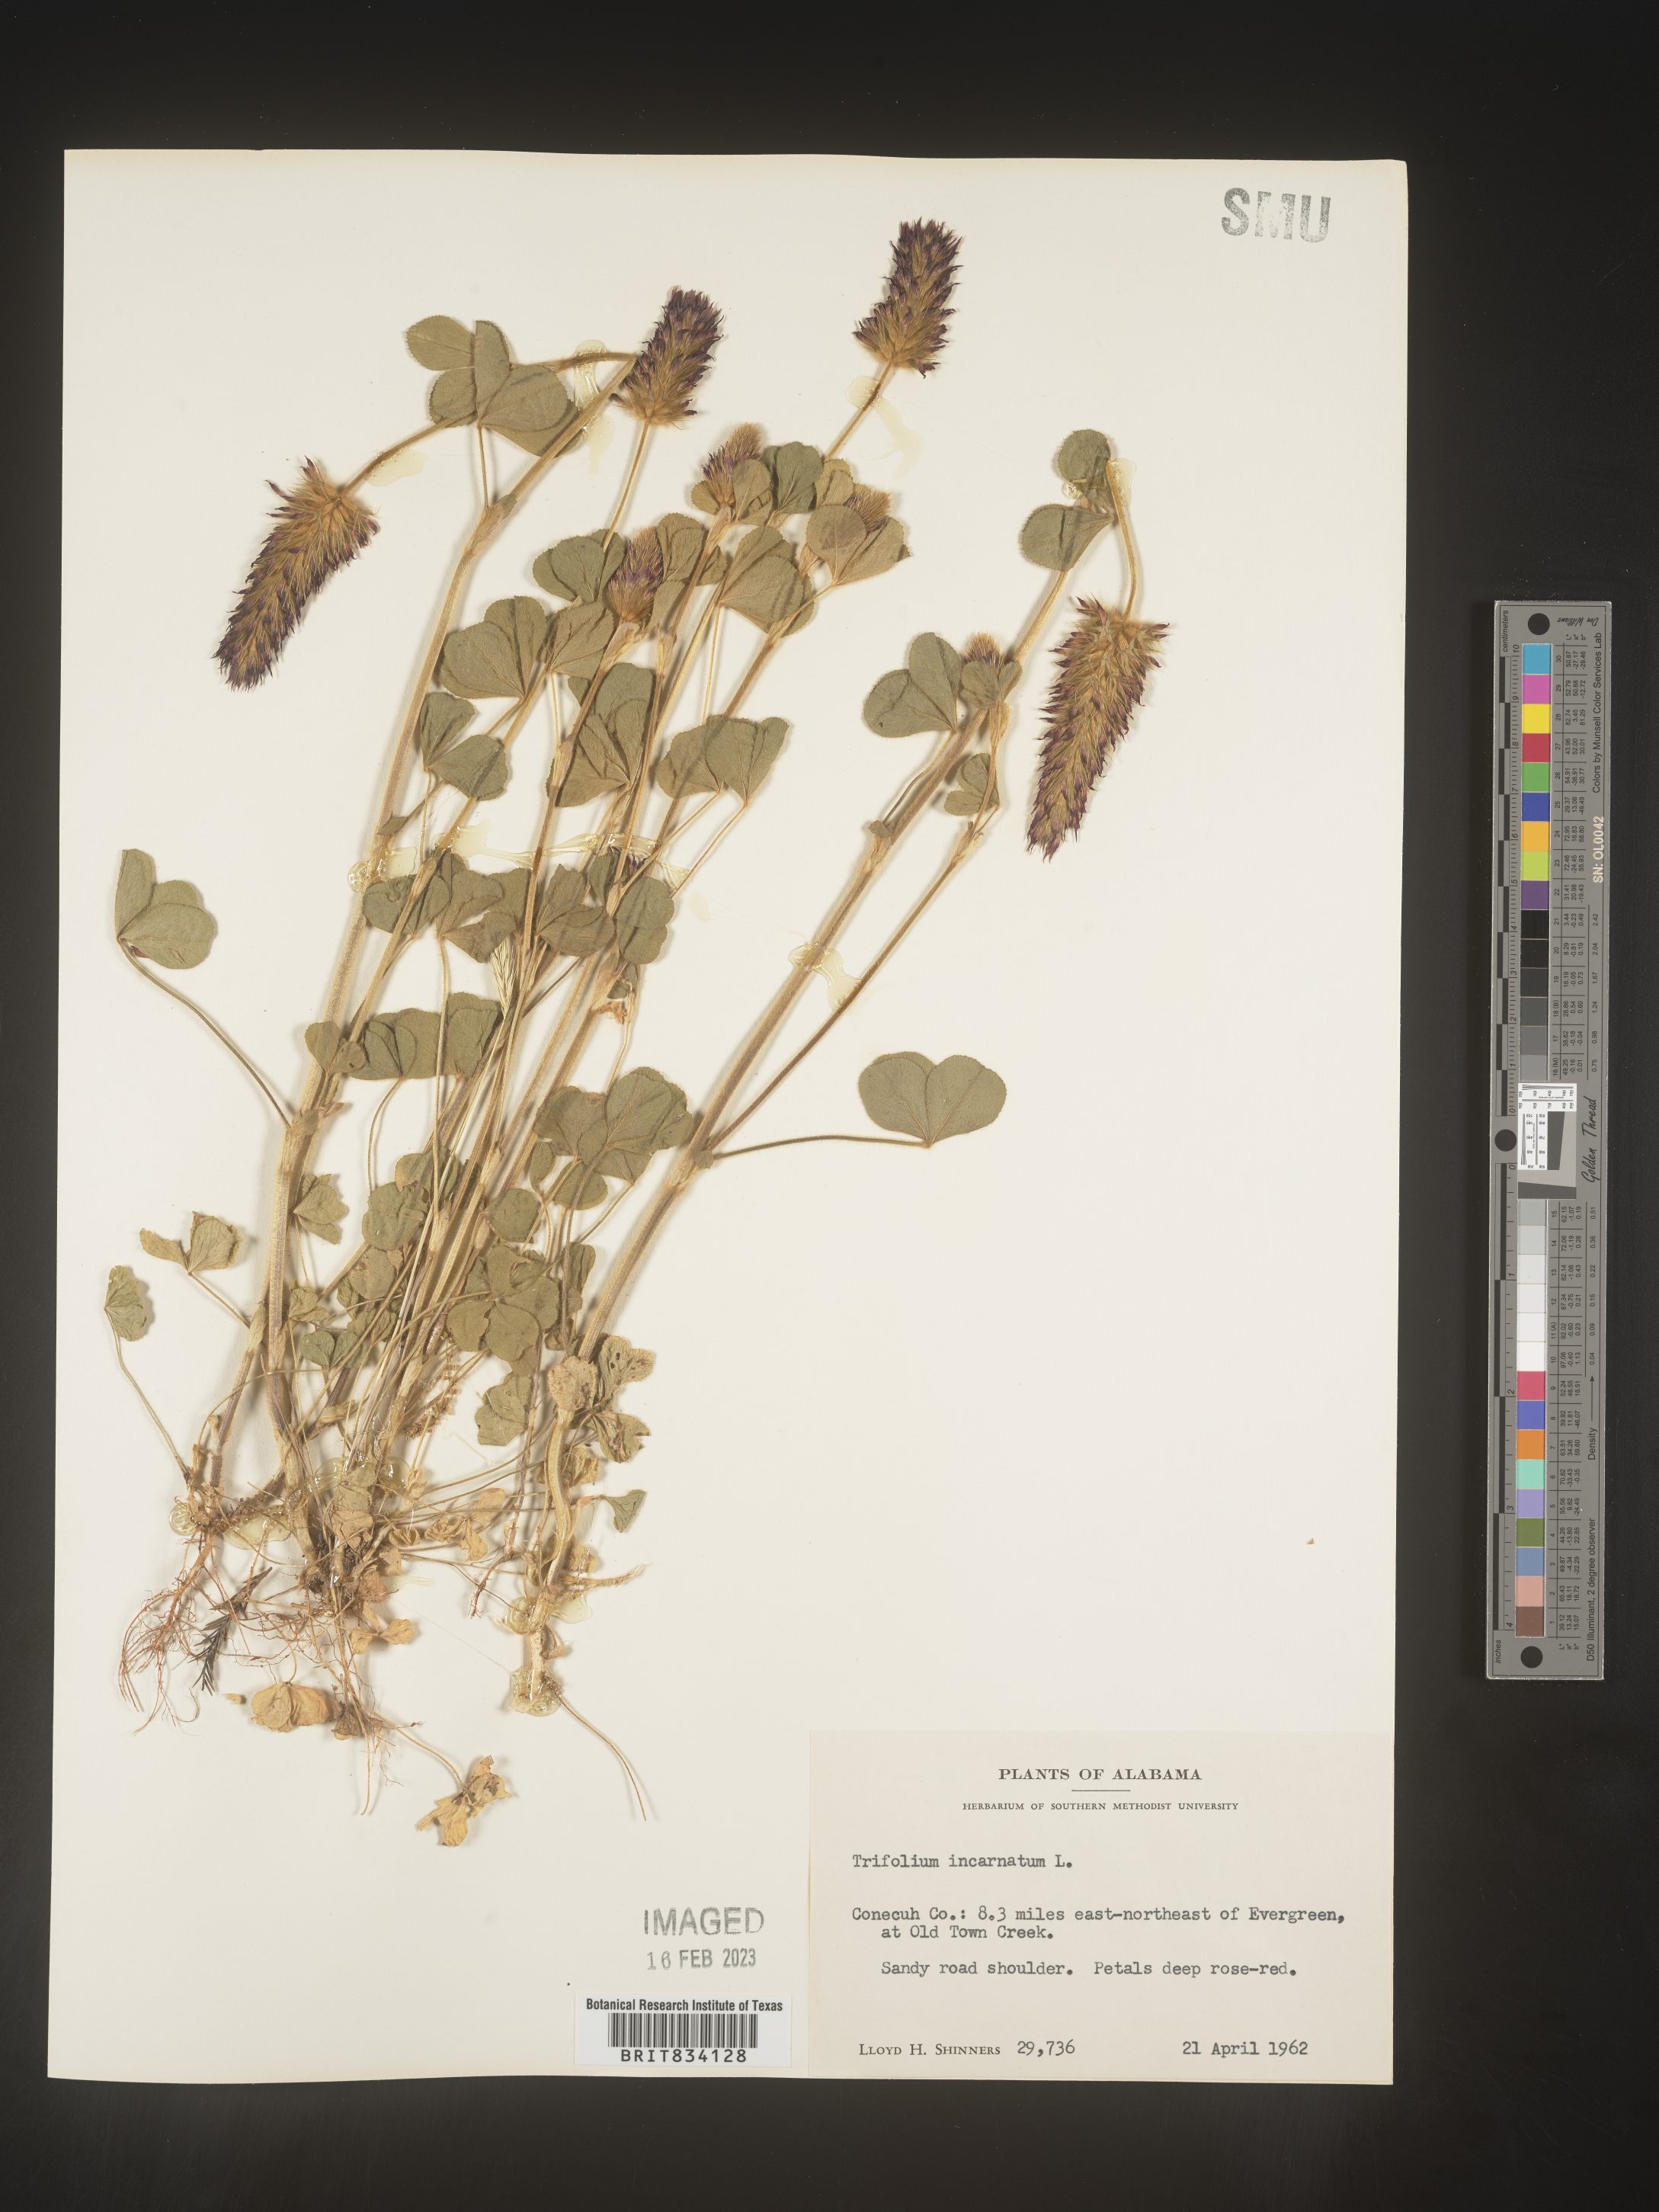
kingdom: Plantae
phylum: Tracheophyta
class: Magnoliopsida
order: Fabales
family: Fabaceae
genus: Trifolium
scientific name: Trifolium incarnatum
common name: Crimson clover
